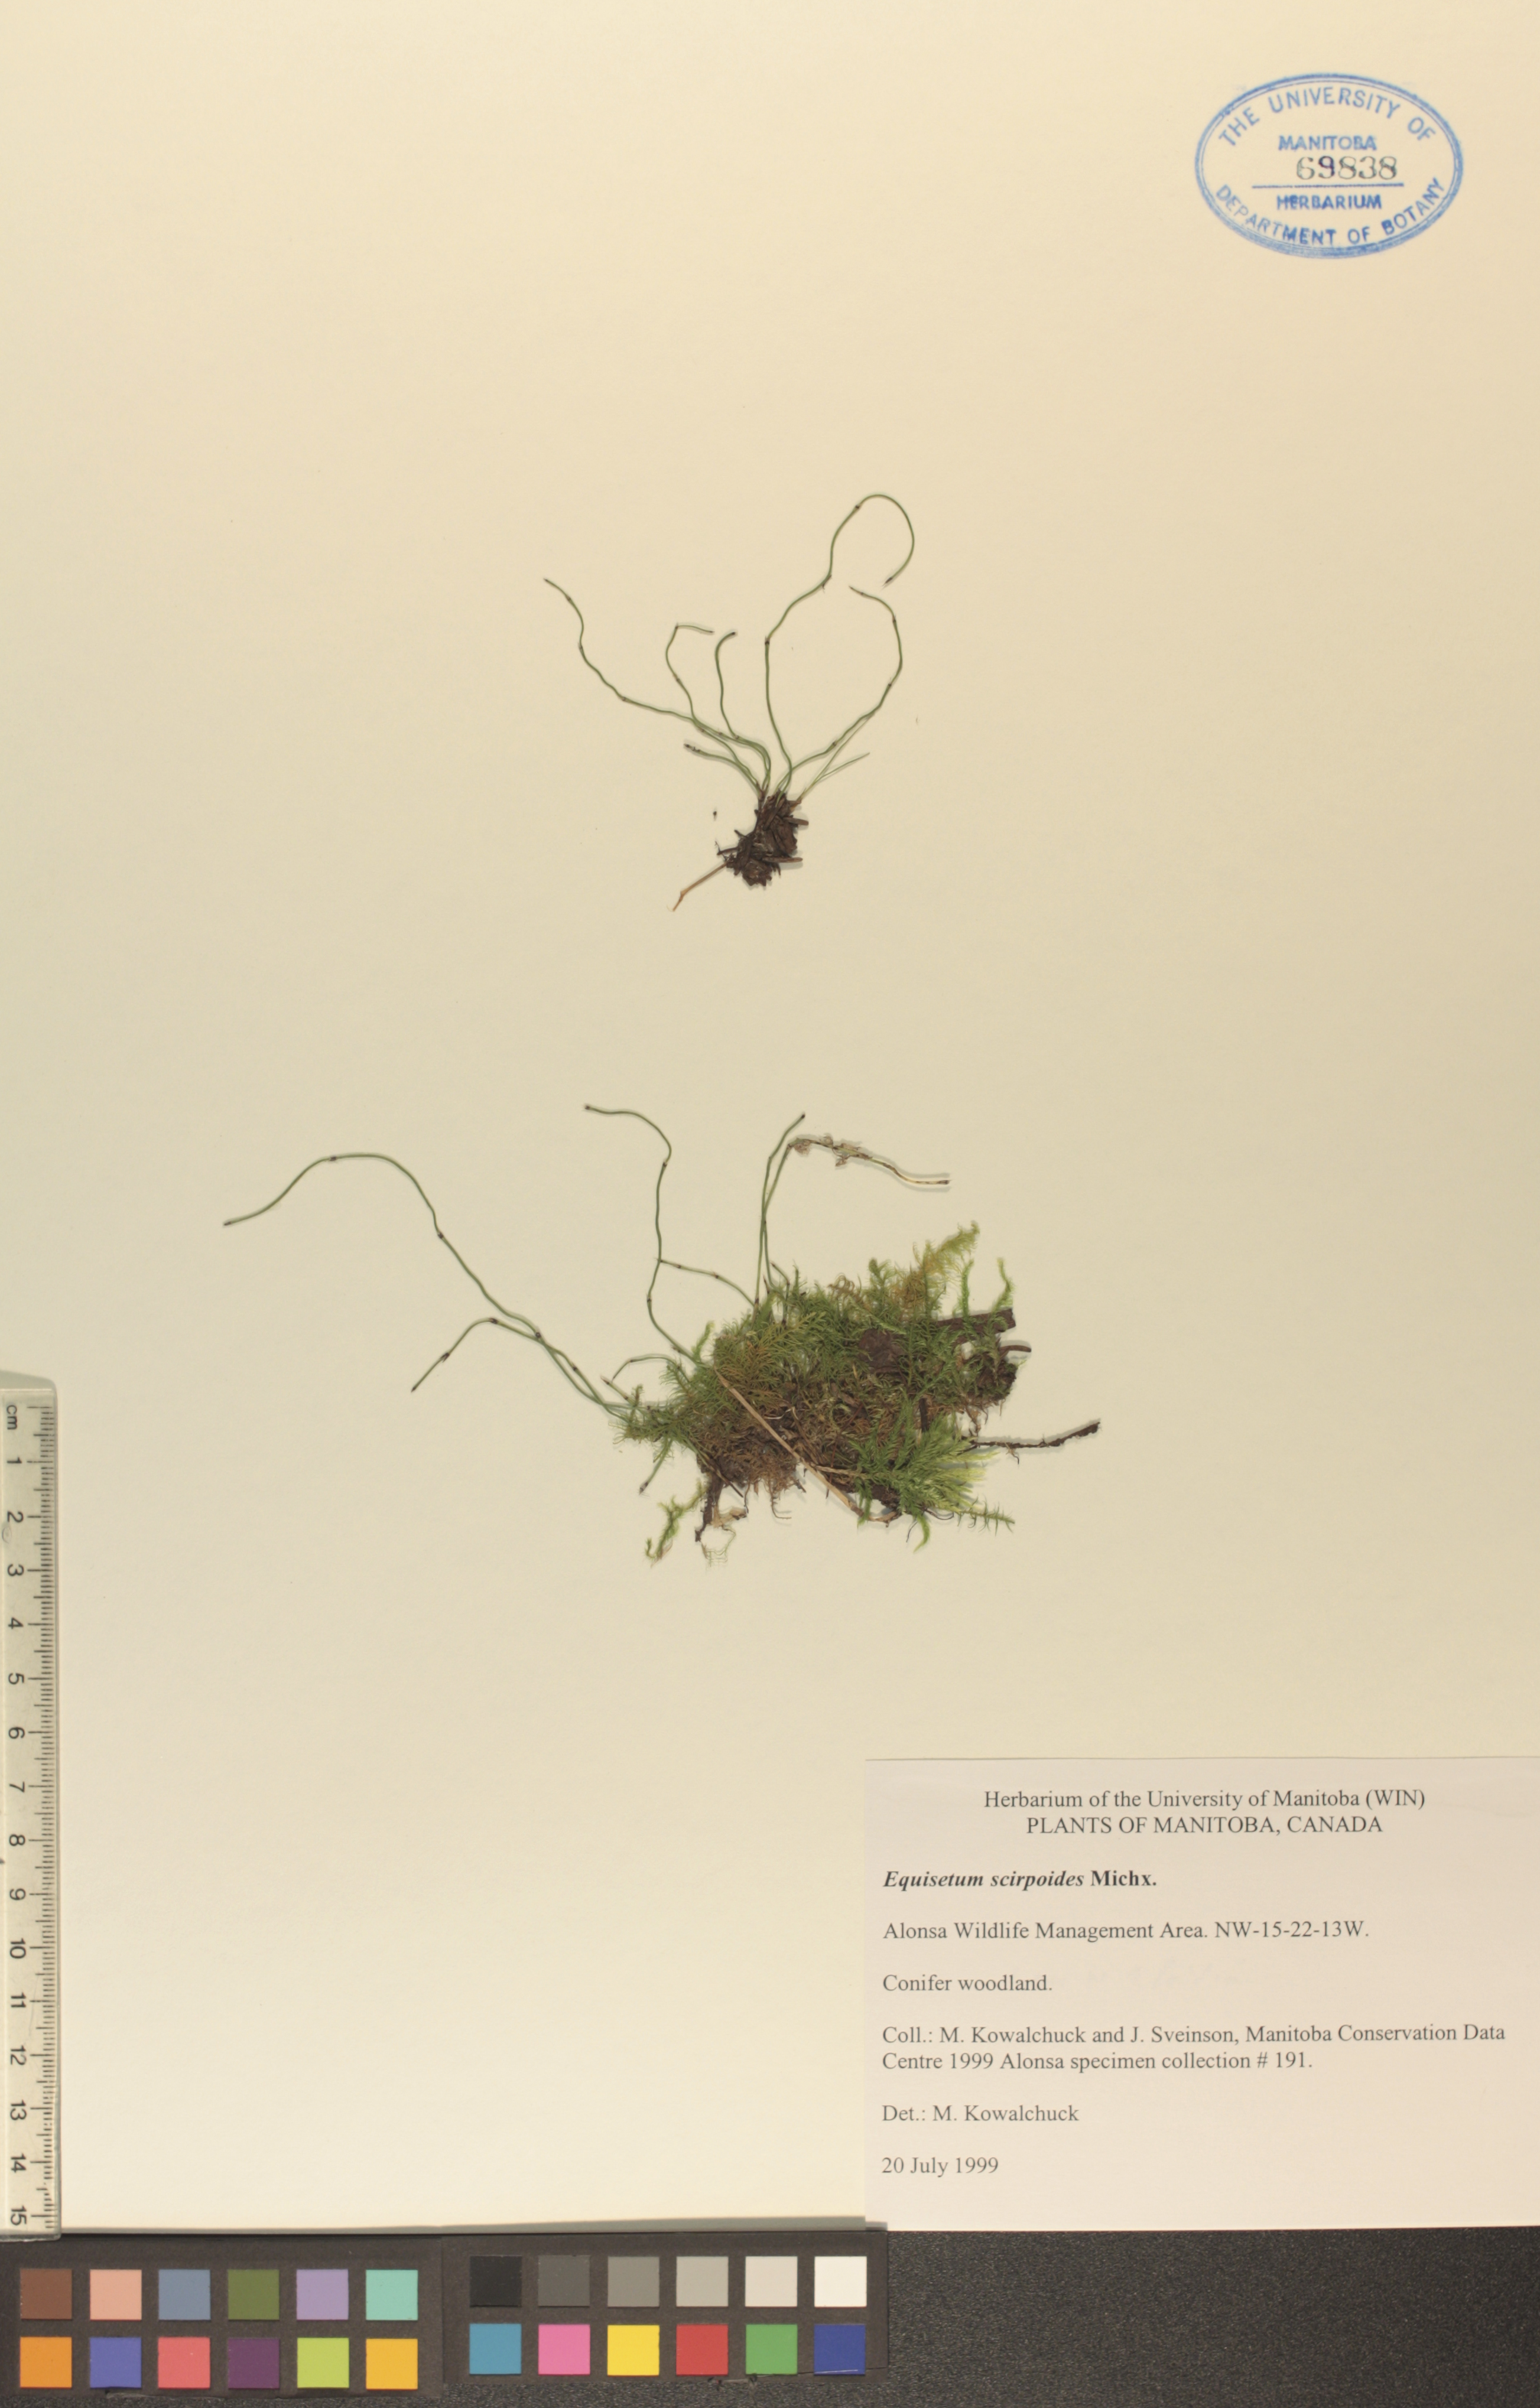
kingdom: Plantae
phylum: Tracheophyta
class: Polypodiopsida
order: Equisetales
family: Equisetaceae
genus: Equisetum
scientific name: Equisetum scirpoides
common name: Delicate horsetail
